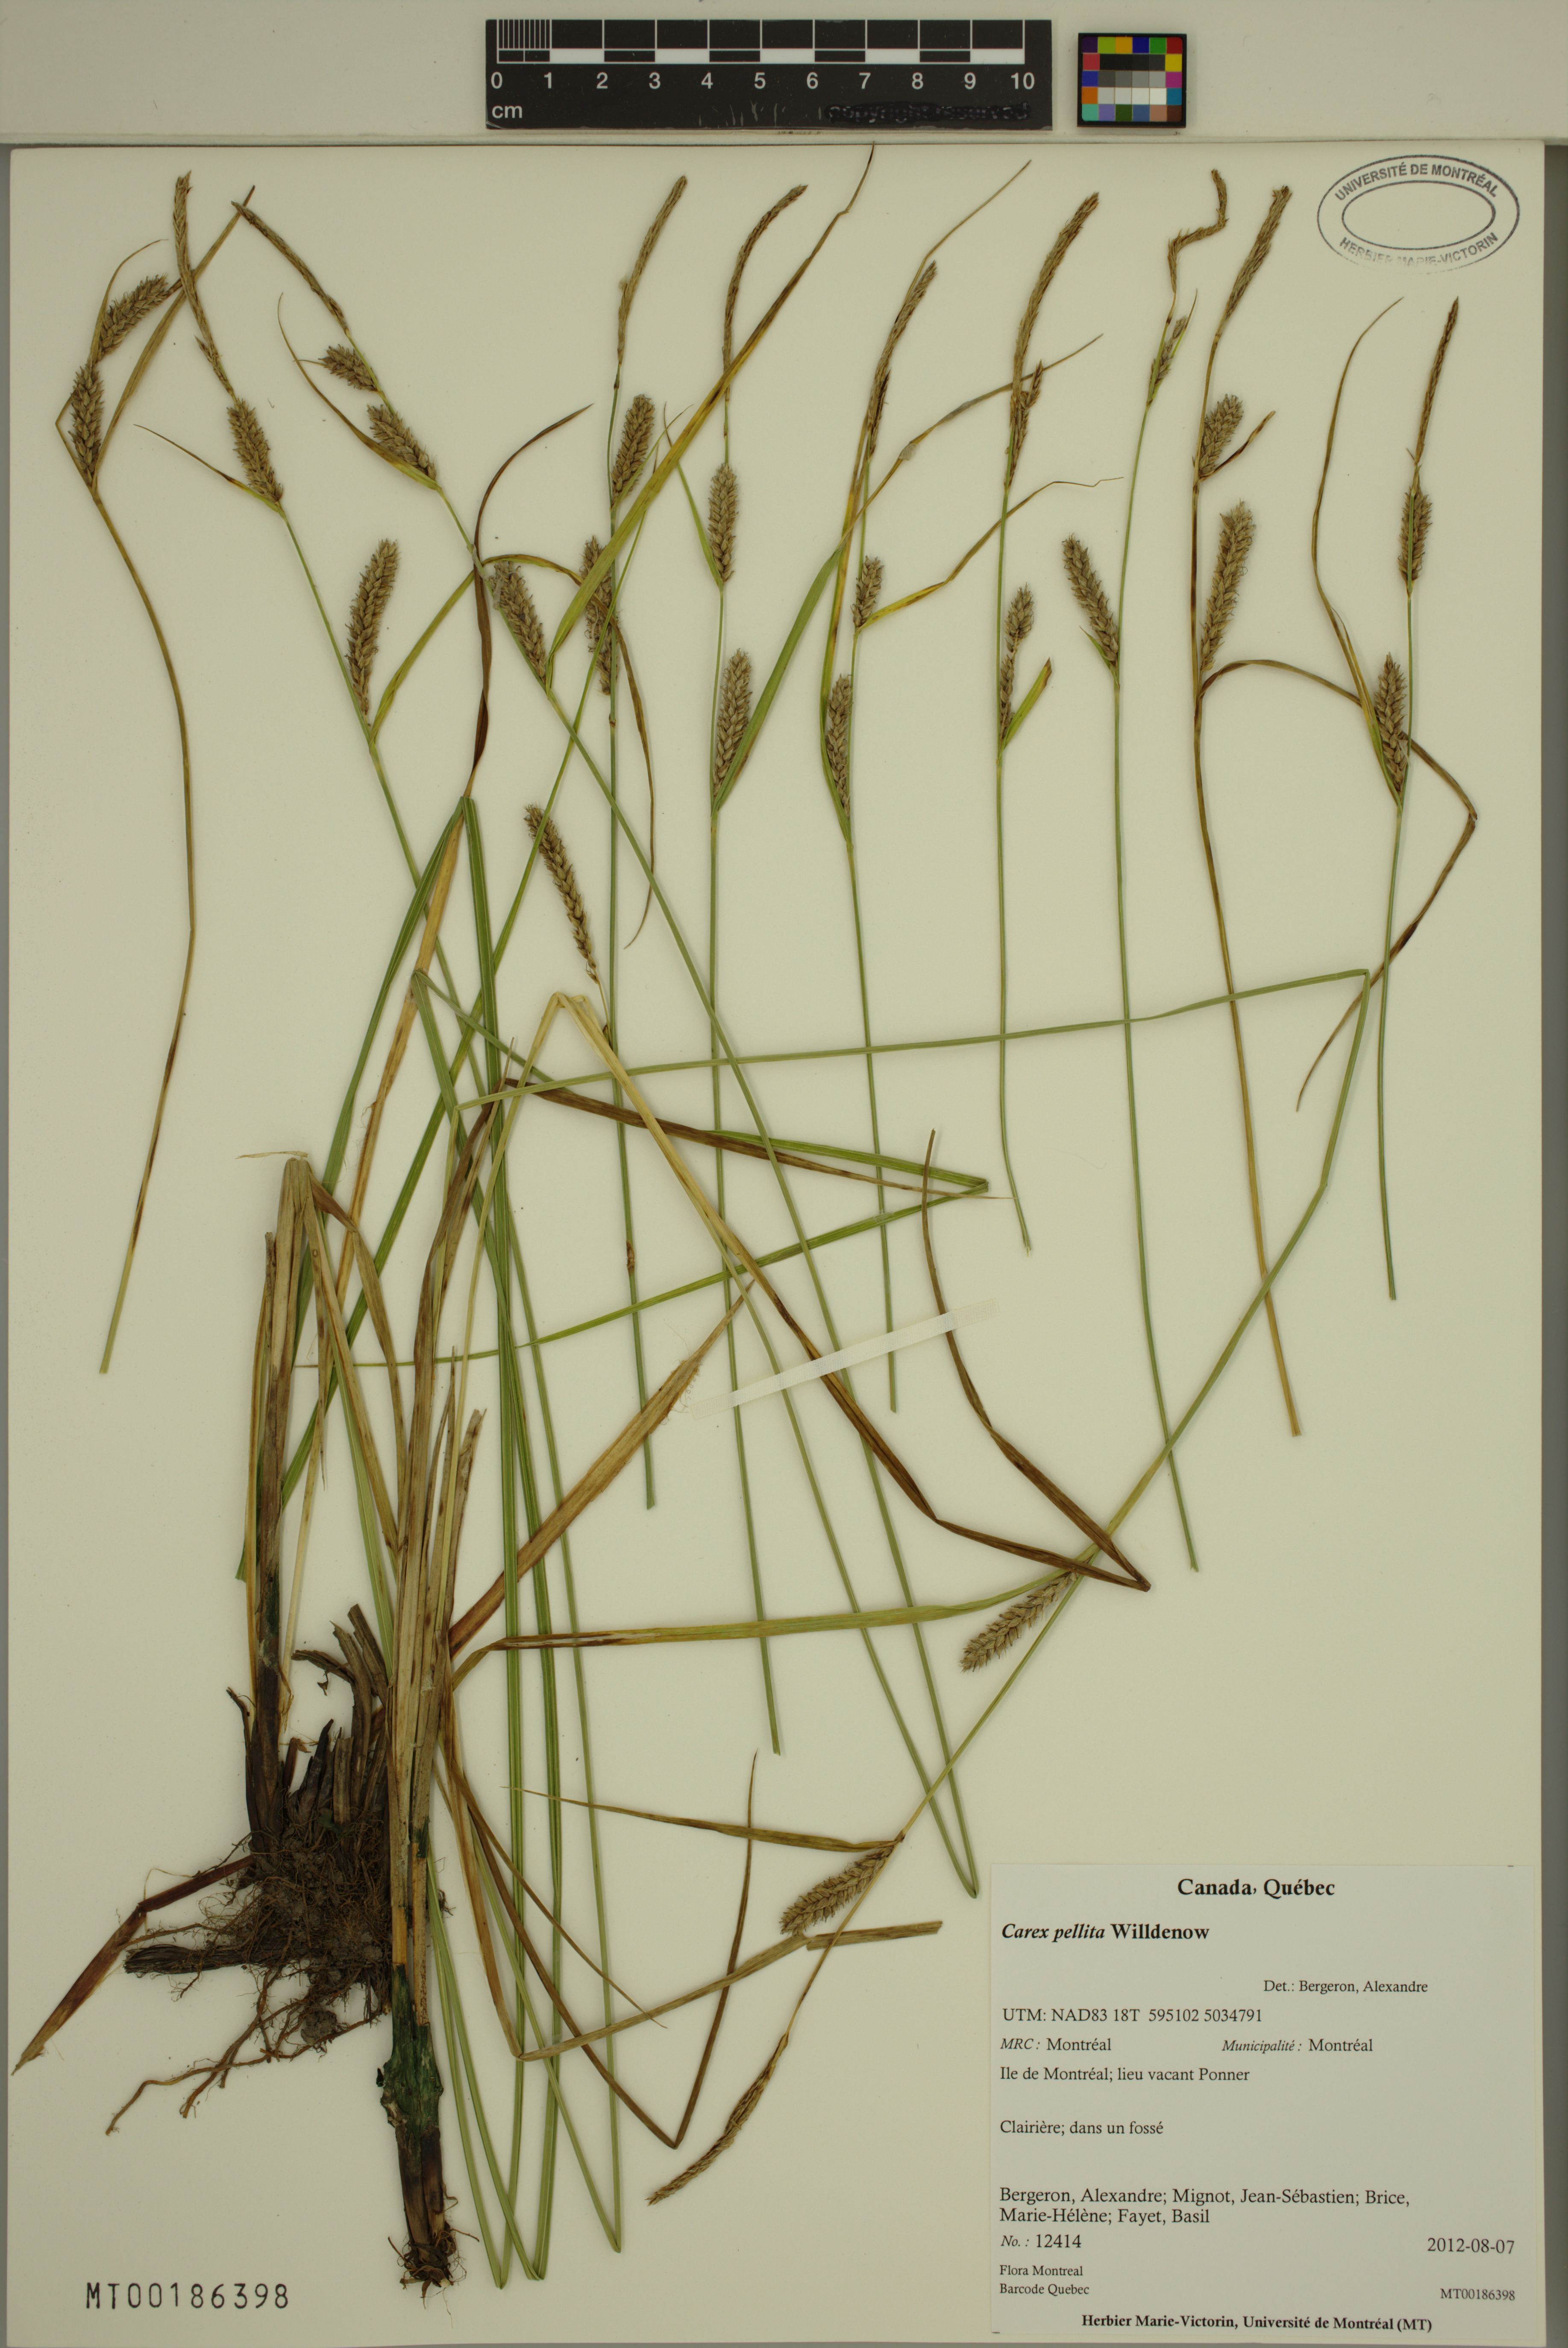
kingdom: Plantae
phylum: Tracheophyta
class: Liliopsida
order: Poales
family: Cyperaceae
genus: Carex
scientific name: Carex pellita
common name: Woolly sedge
